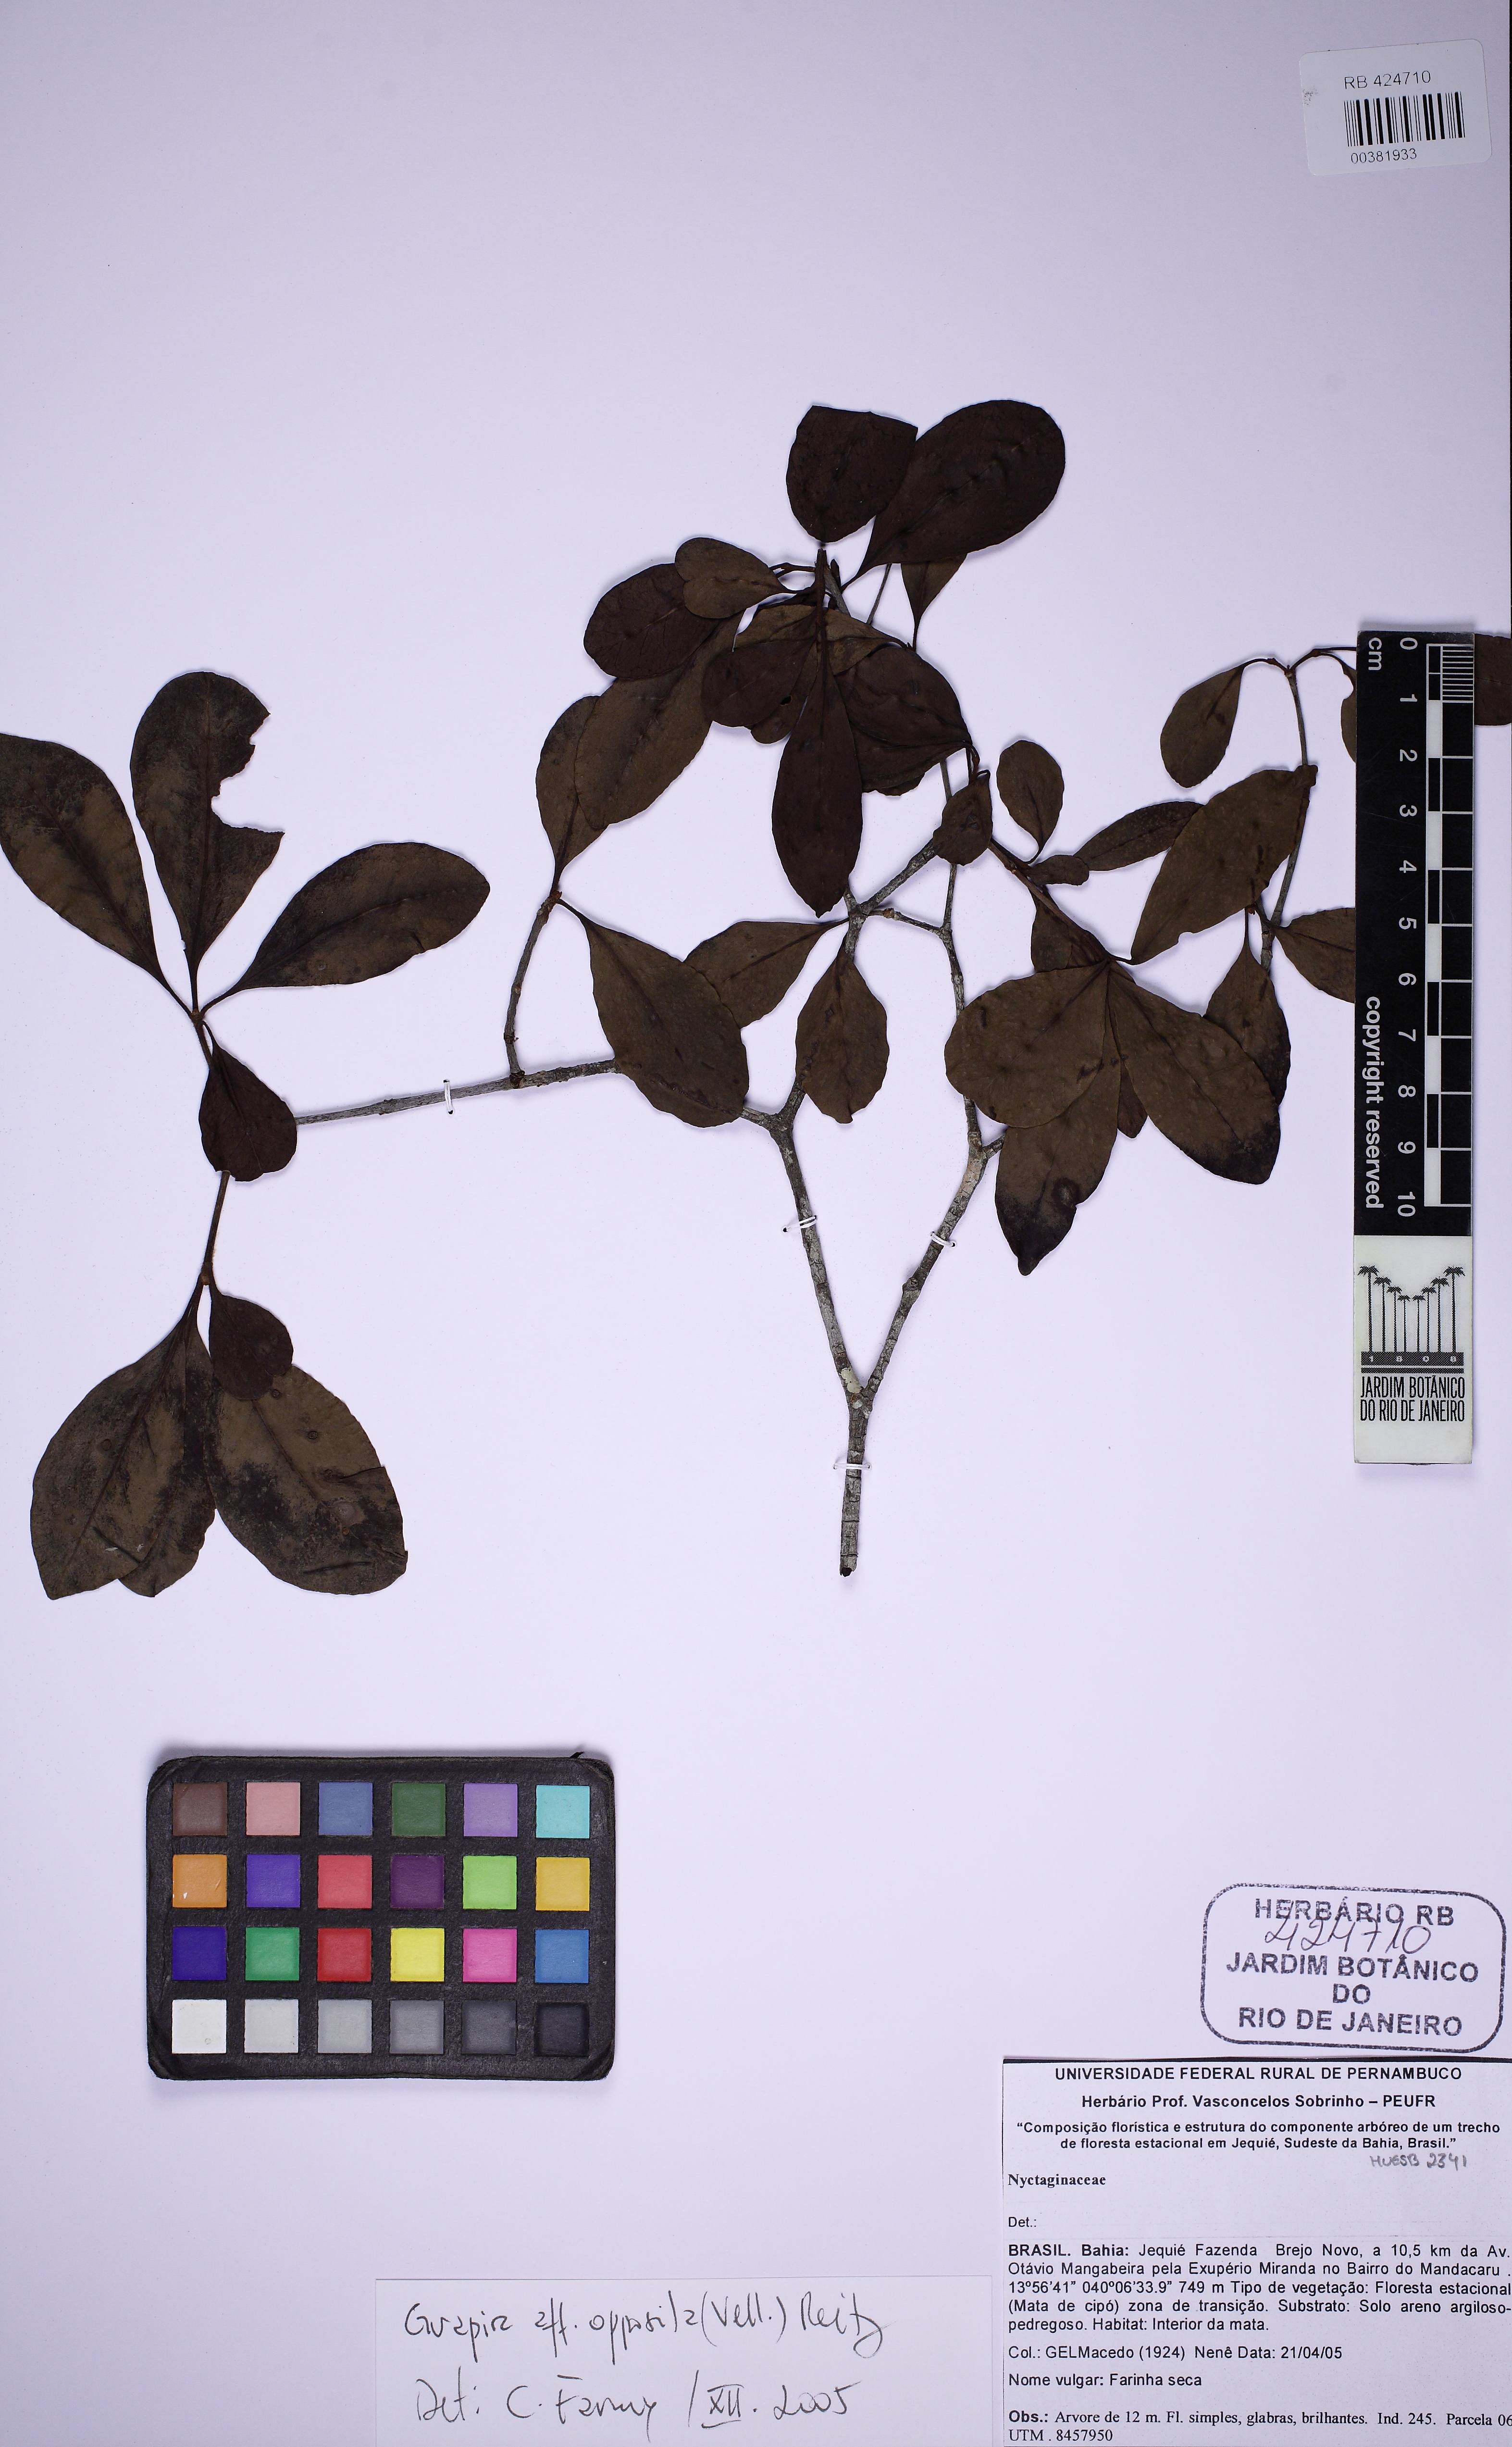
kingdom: Plantae
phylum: Tracheophyta
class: Magnoliopsida
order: Caryophyllales
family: Nyctaginaceae
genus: Guapira
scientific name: Guapira opposita
